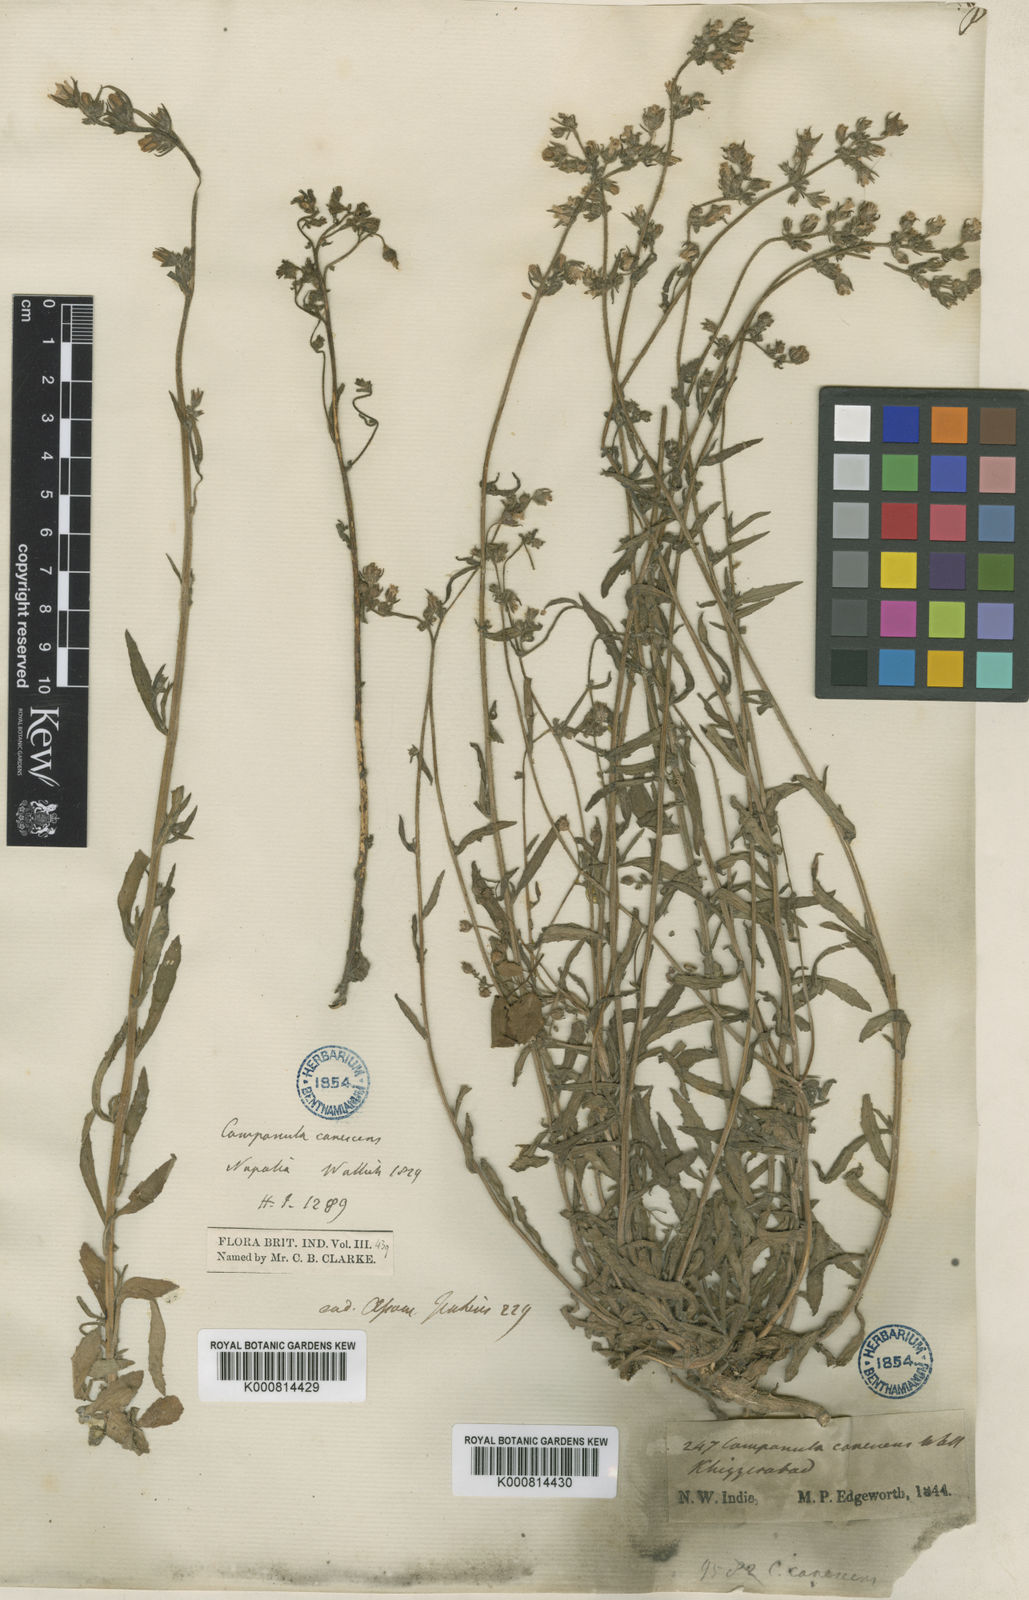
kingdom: Plantae
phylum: Tracheophyta
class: Magnoliopsida
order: Asterales
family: Campanulaceae
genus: Campanula
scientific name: Campanula
